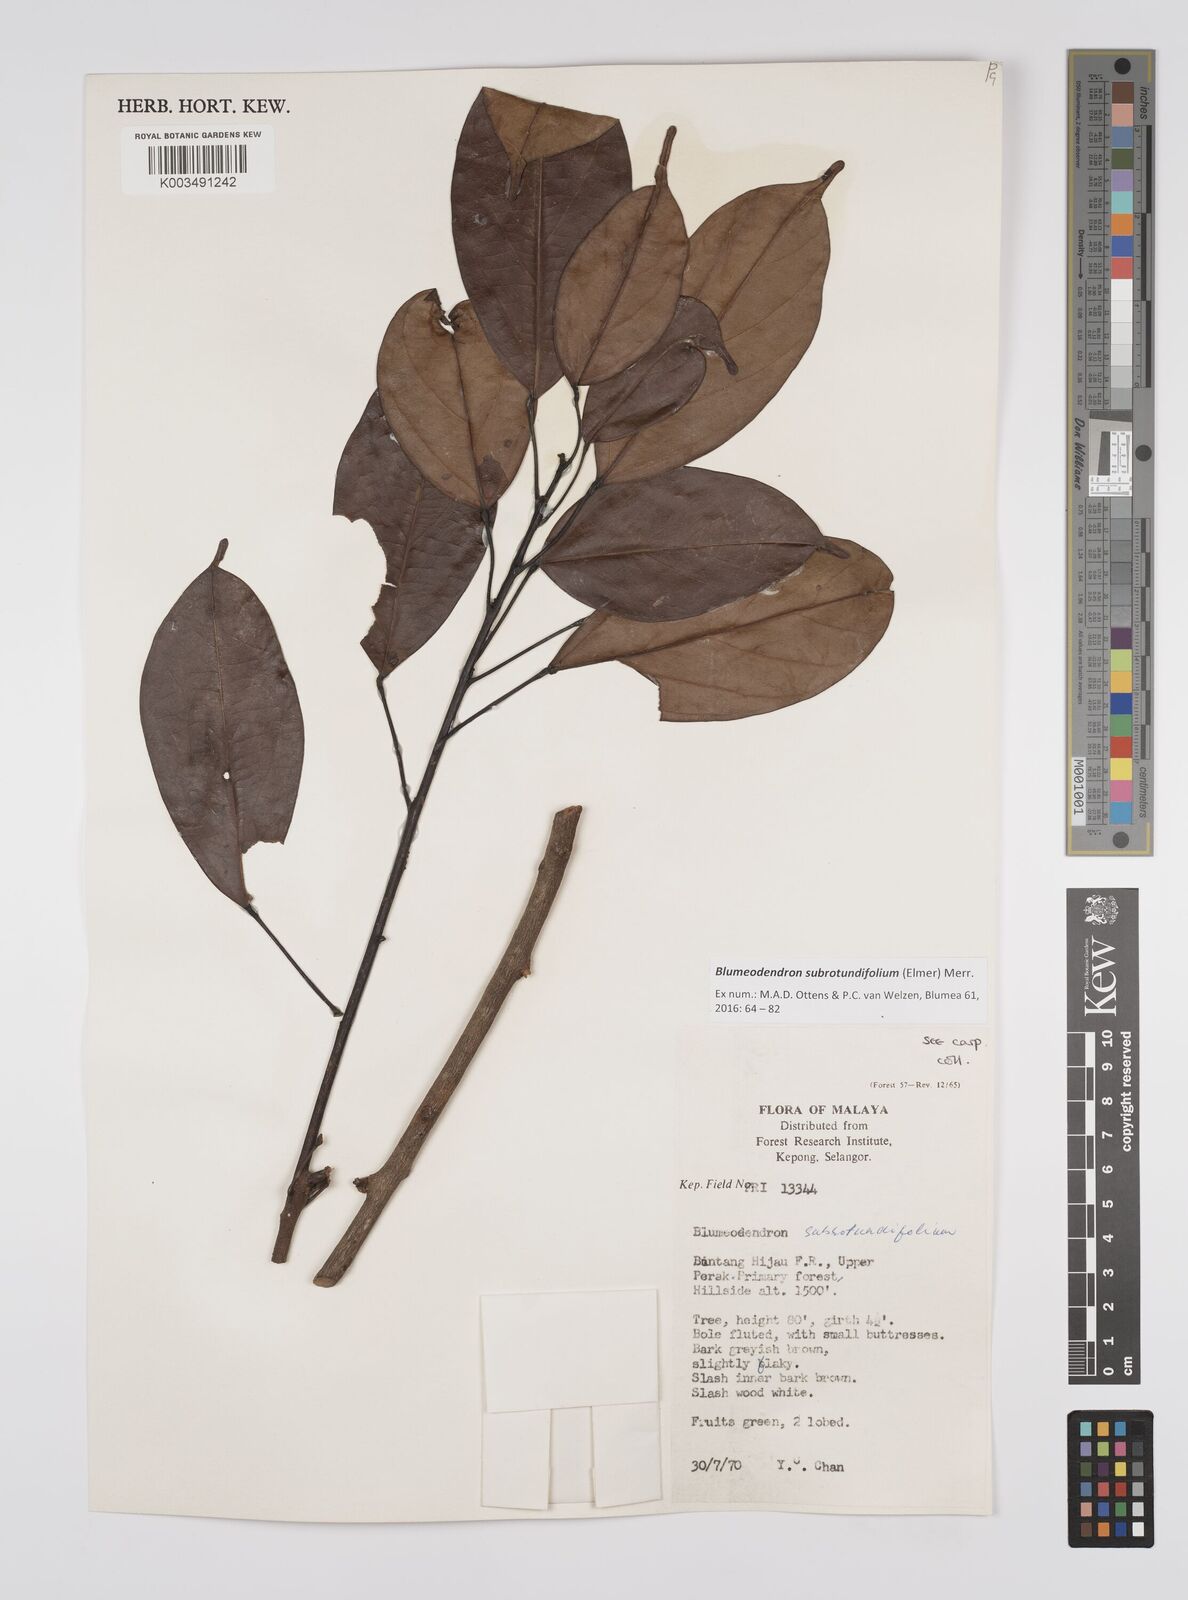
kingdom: Plantae
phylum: Tracheophyta
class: Magnoliopsida
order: Malpighiales
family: Euphorbiaceae
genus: Blumeodendron
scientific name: Blumeodendron subrotundifolium
